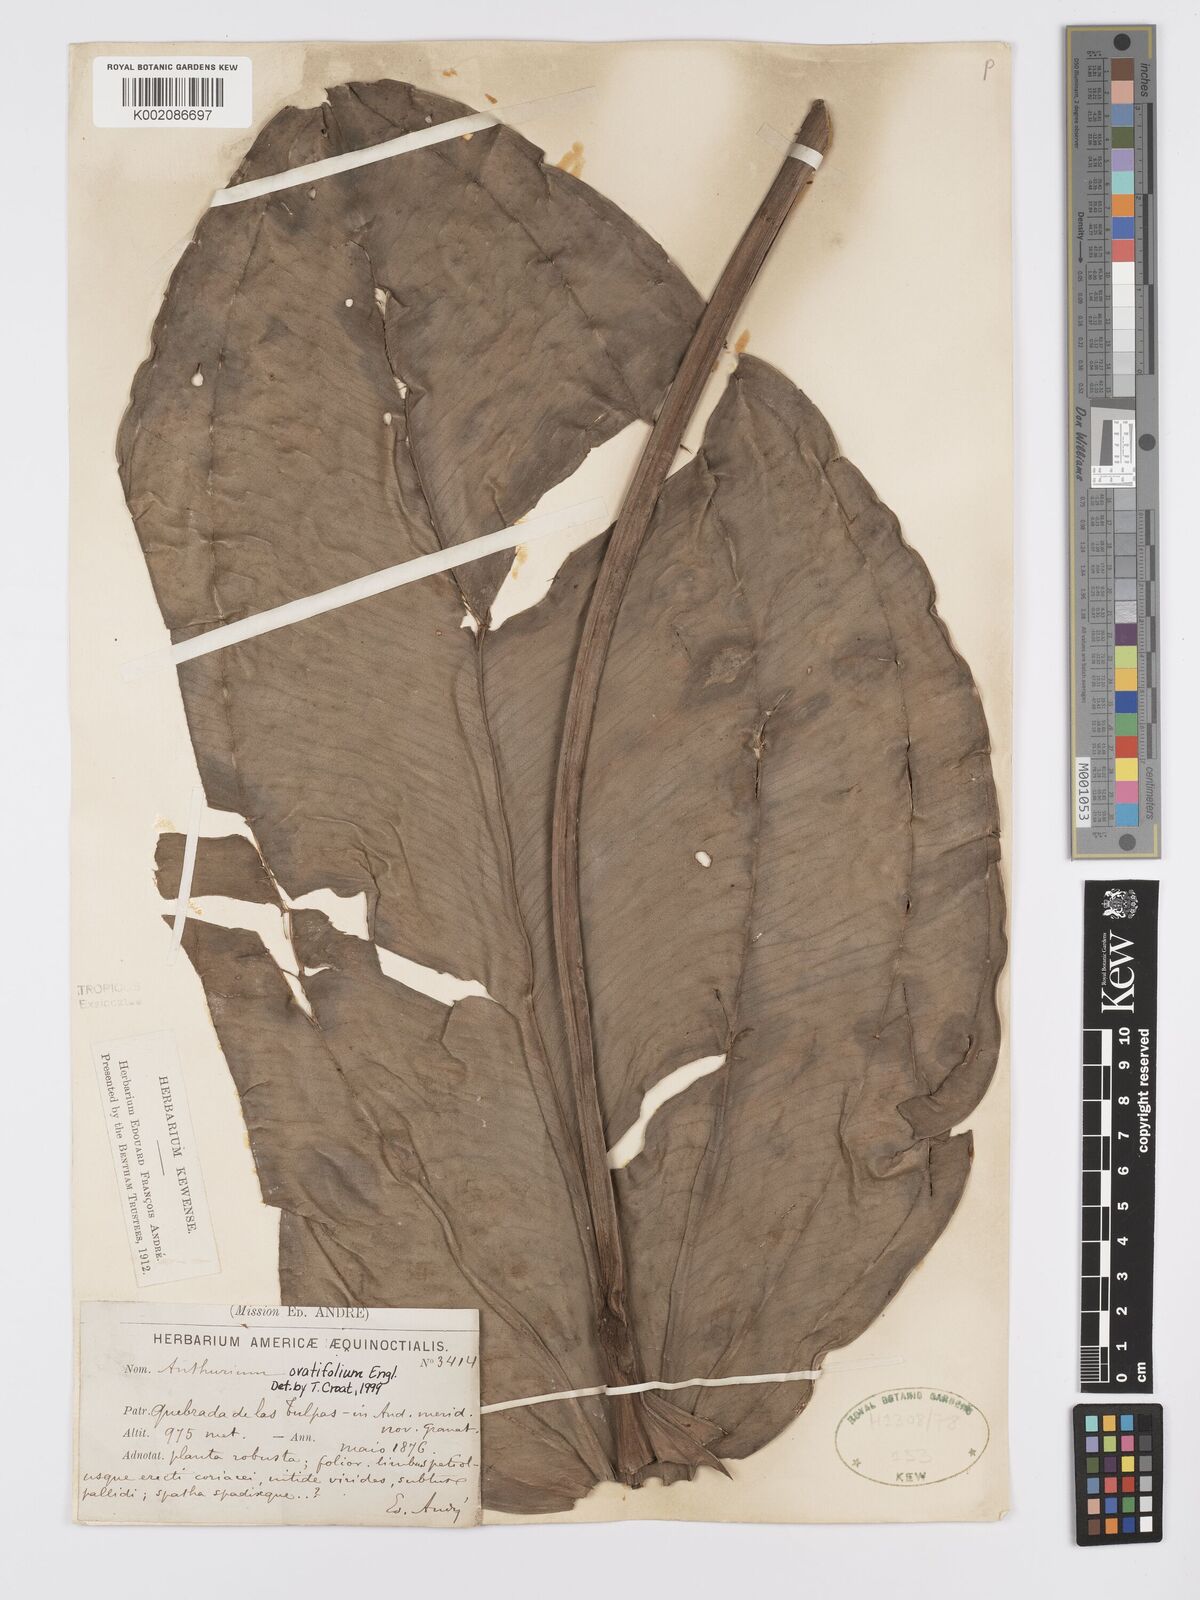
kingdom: Plantae
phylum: Tracheophyta
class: Liliopsida
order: Alismatales
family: Araceae
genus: Anthurium
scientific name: Anthurium ovatifolium
